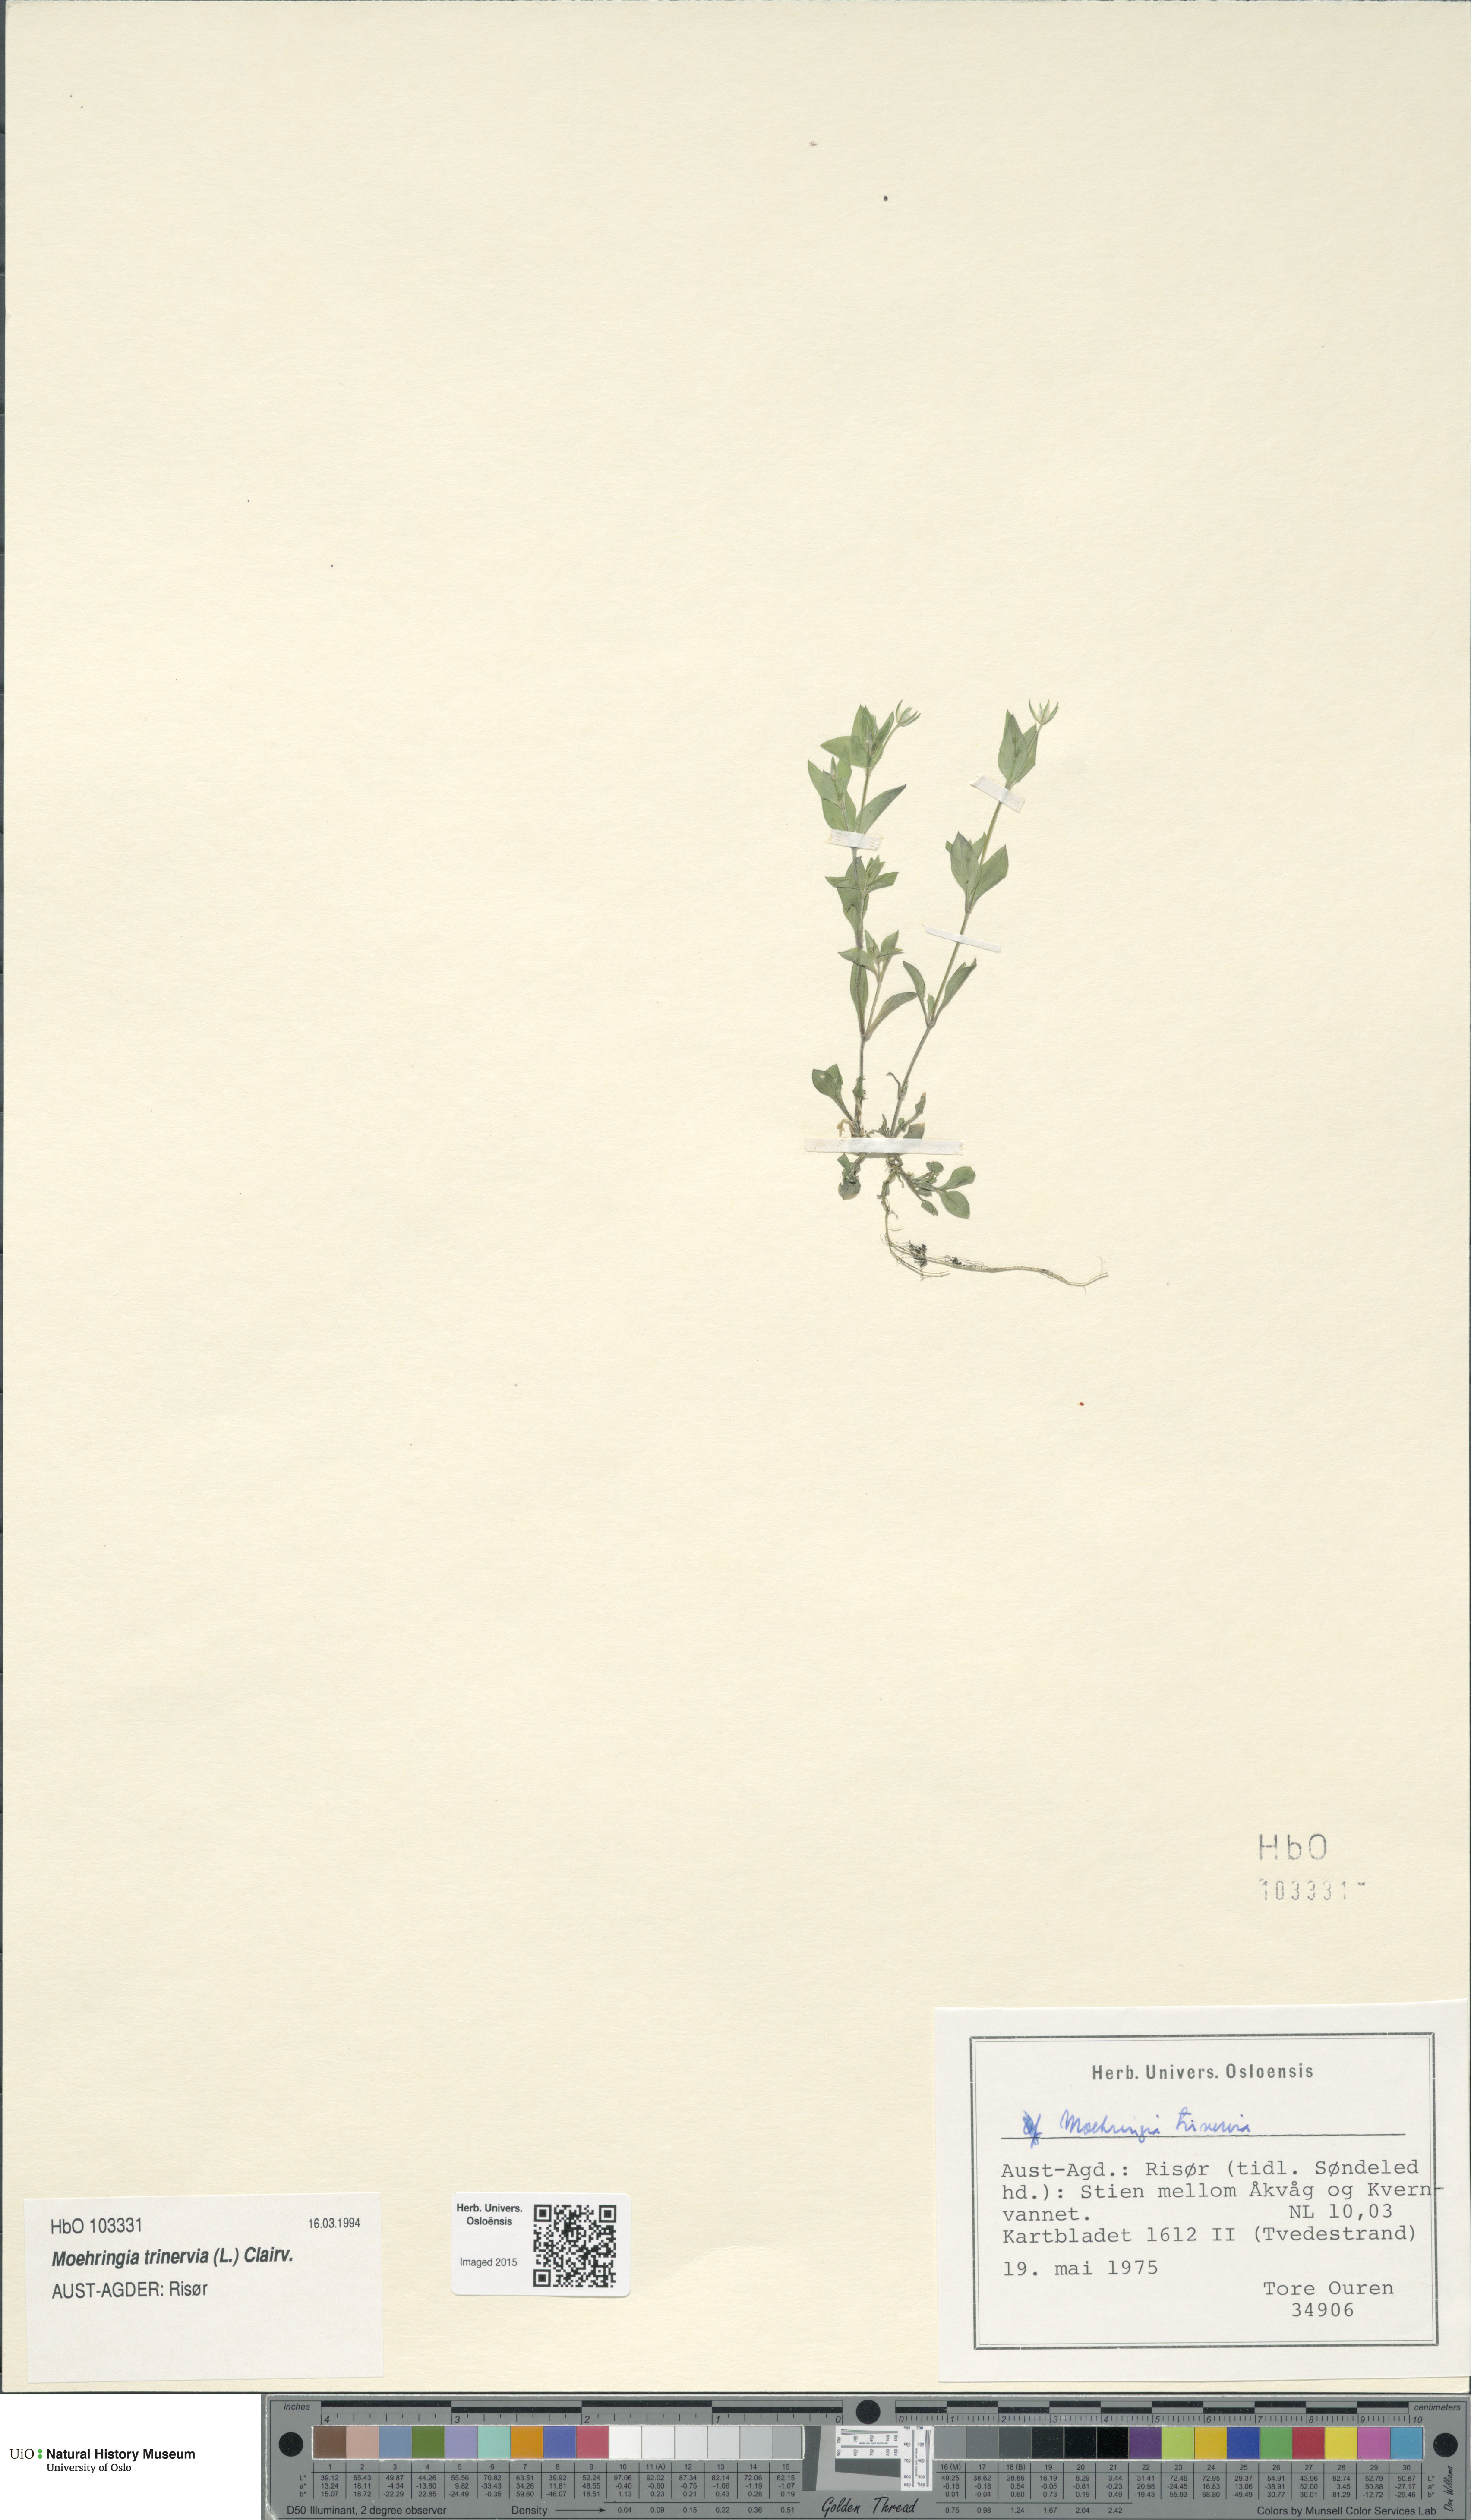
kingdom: Plantae
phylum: Tracheophyta
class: Magnoliopsida
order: Caryophyllales
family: Caryophyllaceae
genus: Moehringia
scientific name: Moehringia trinervia
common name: Three-nerved sandwort
